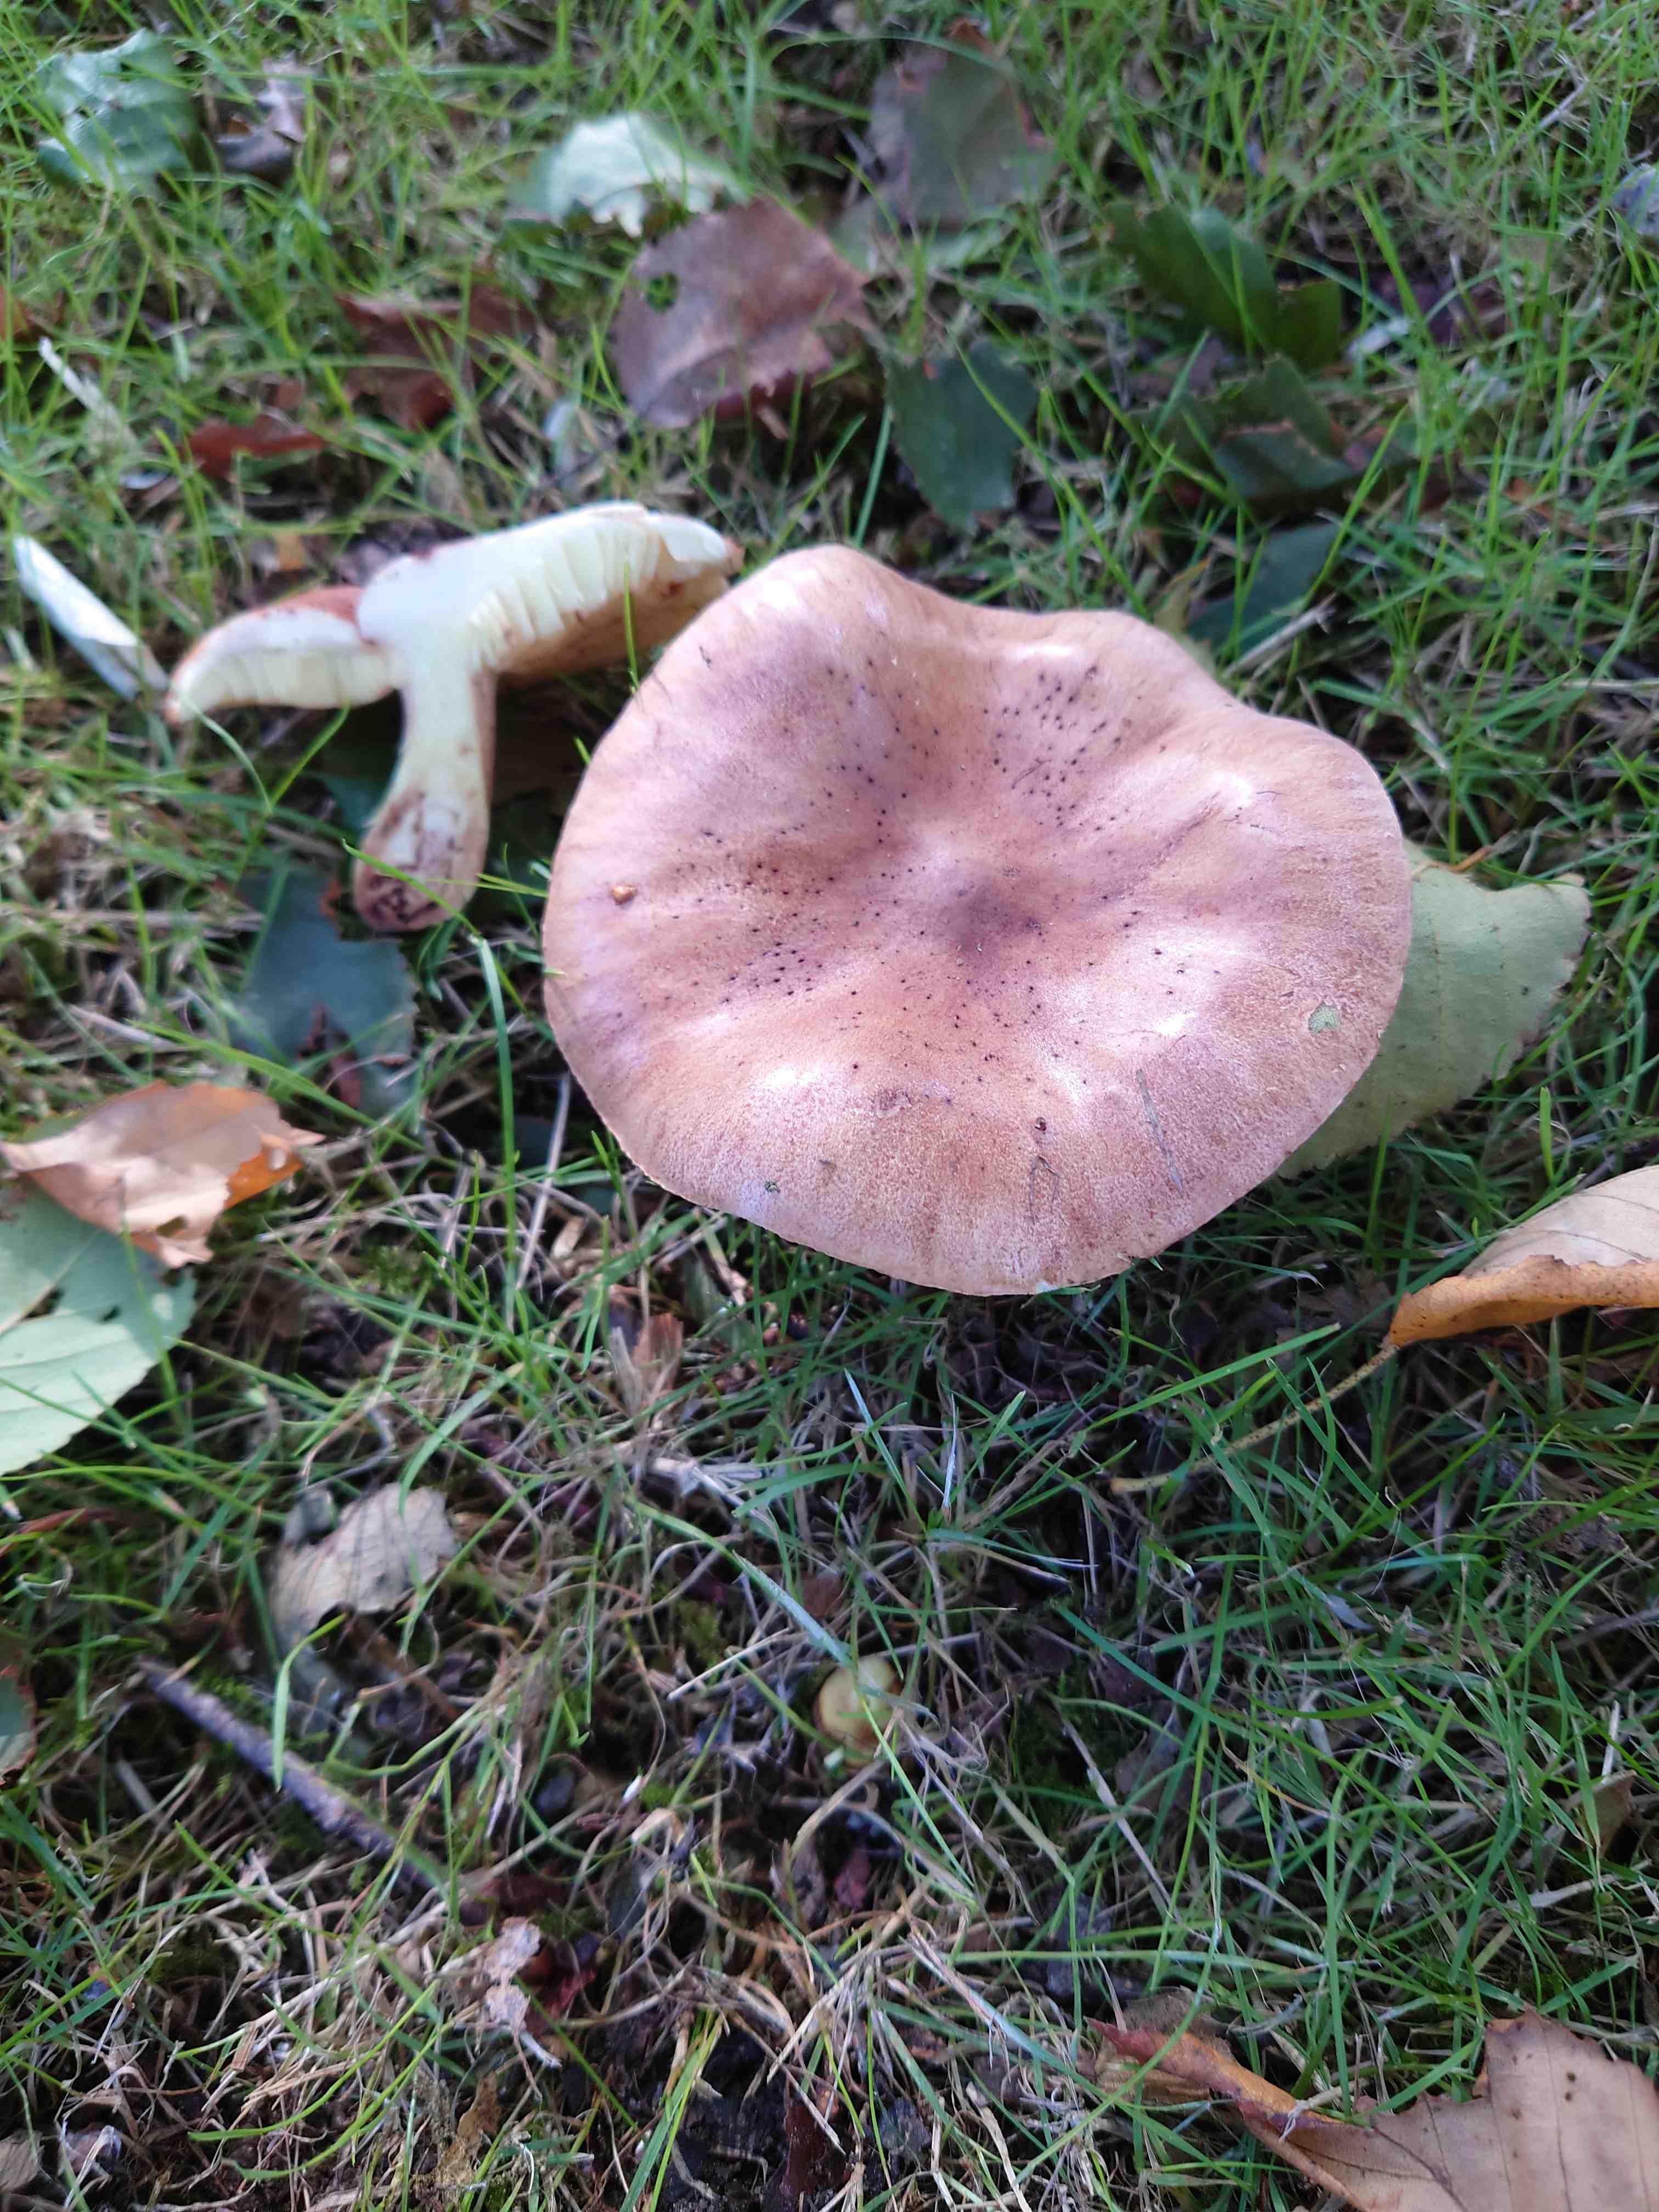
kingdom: Fungi
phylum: Basidiomycota
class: Agaricomycetes
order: Agaricales
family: Tricholomataceae
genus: Tricholoma
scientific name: Tricholoma fulvum
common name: birke-ridderhat
